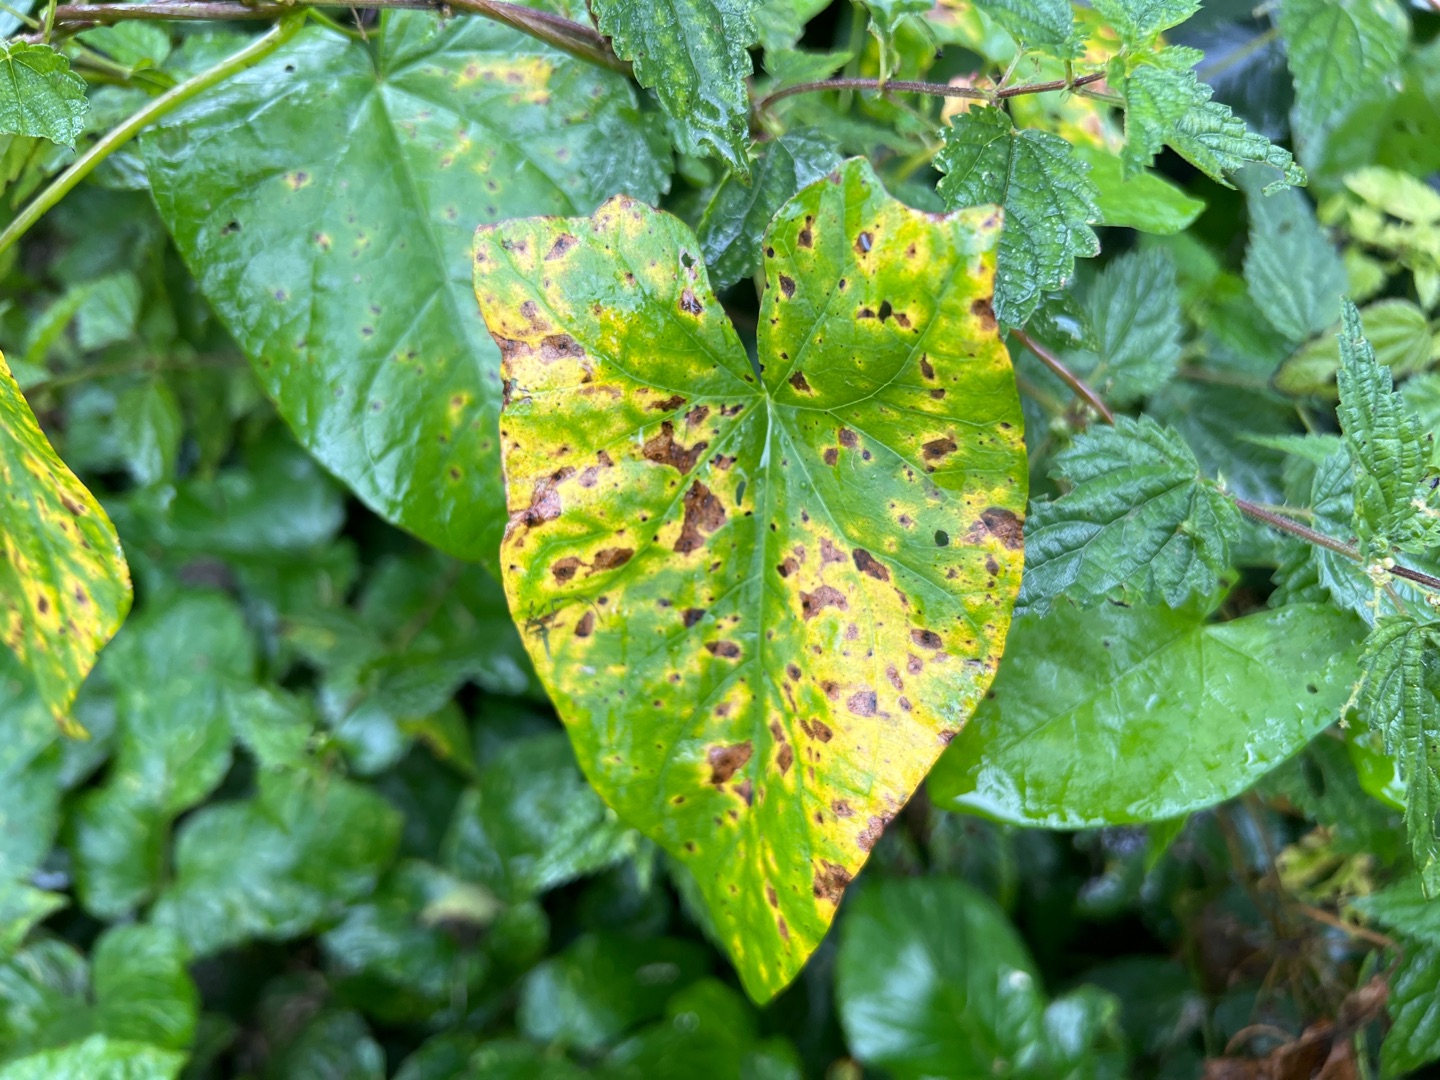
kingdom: Plantae
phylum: Tracheophyta
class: Magnoliopsida
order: Solanales
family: Convolvulaceae
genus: Calystegia
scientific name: Calystegia sepium
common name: Gærde-snerle
